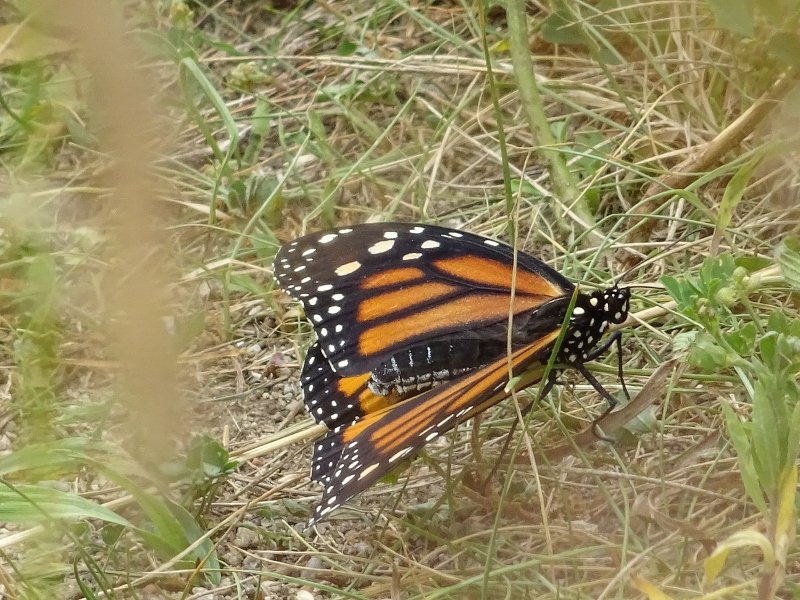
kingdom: Animalia
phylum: Arthropoda
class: Insecta
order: Lepidoptera
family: Nymphalidae
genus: Danaus
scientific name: Danaus plexippus
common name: Monarch
